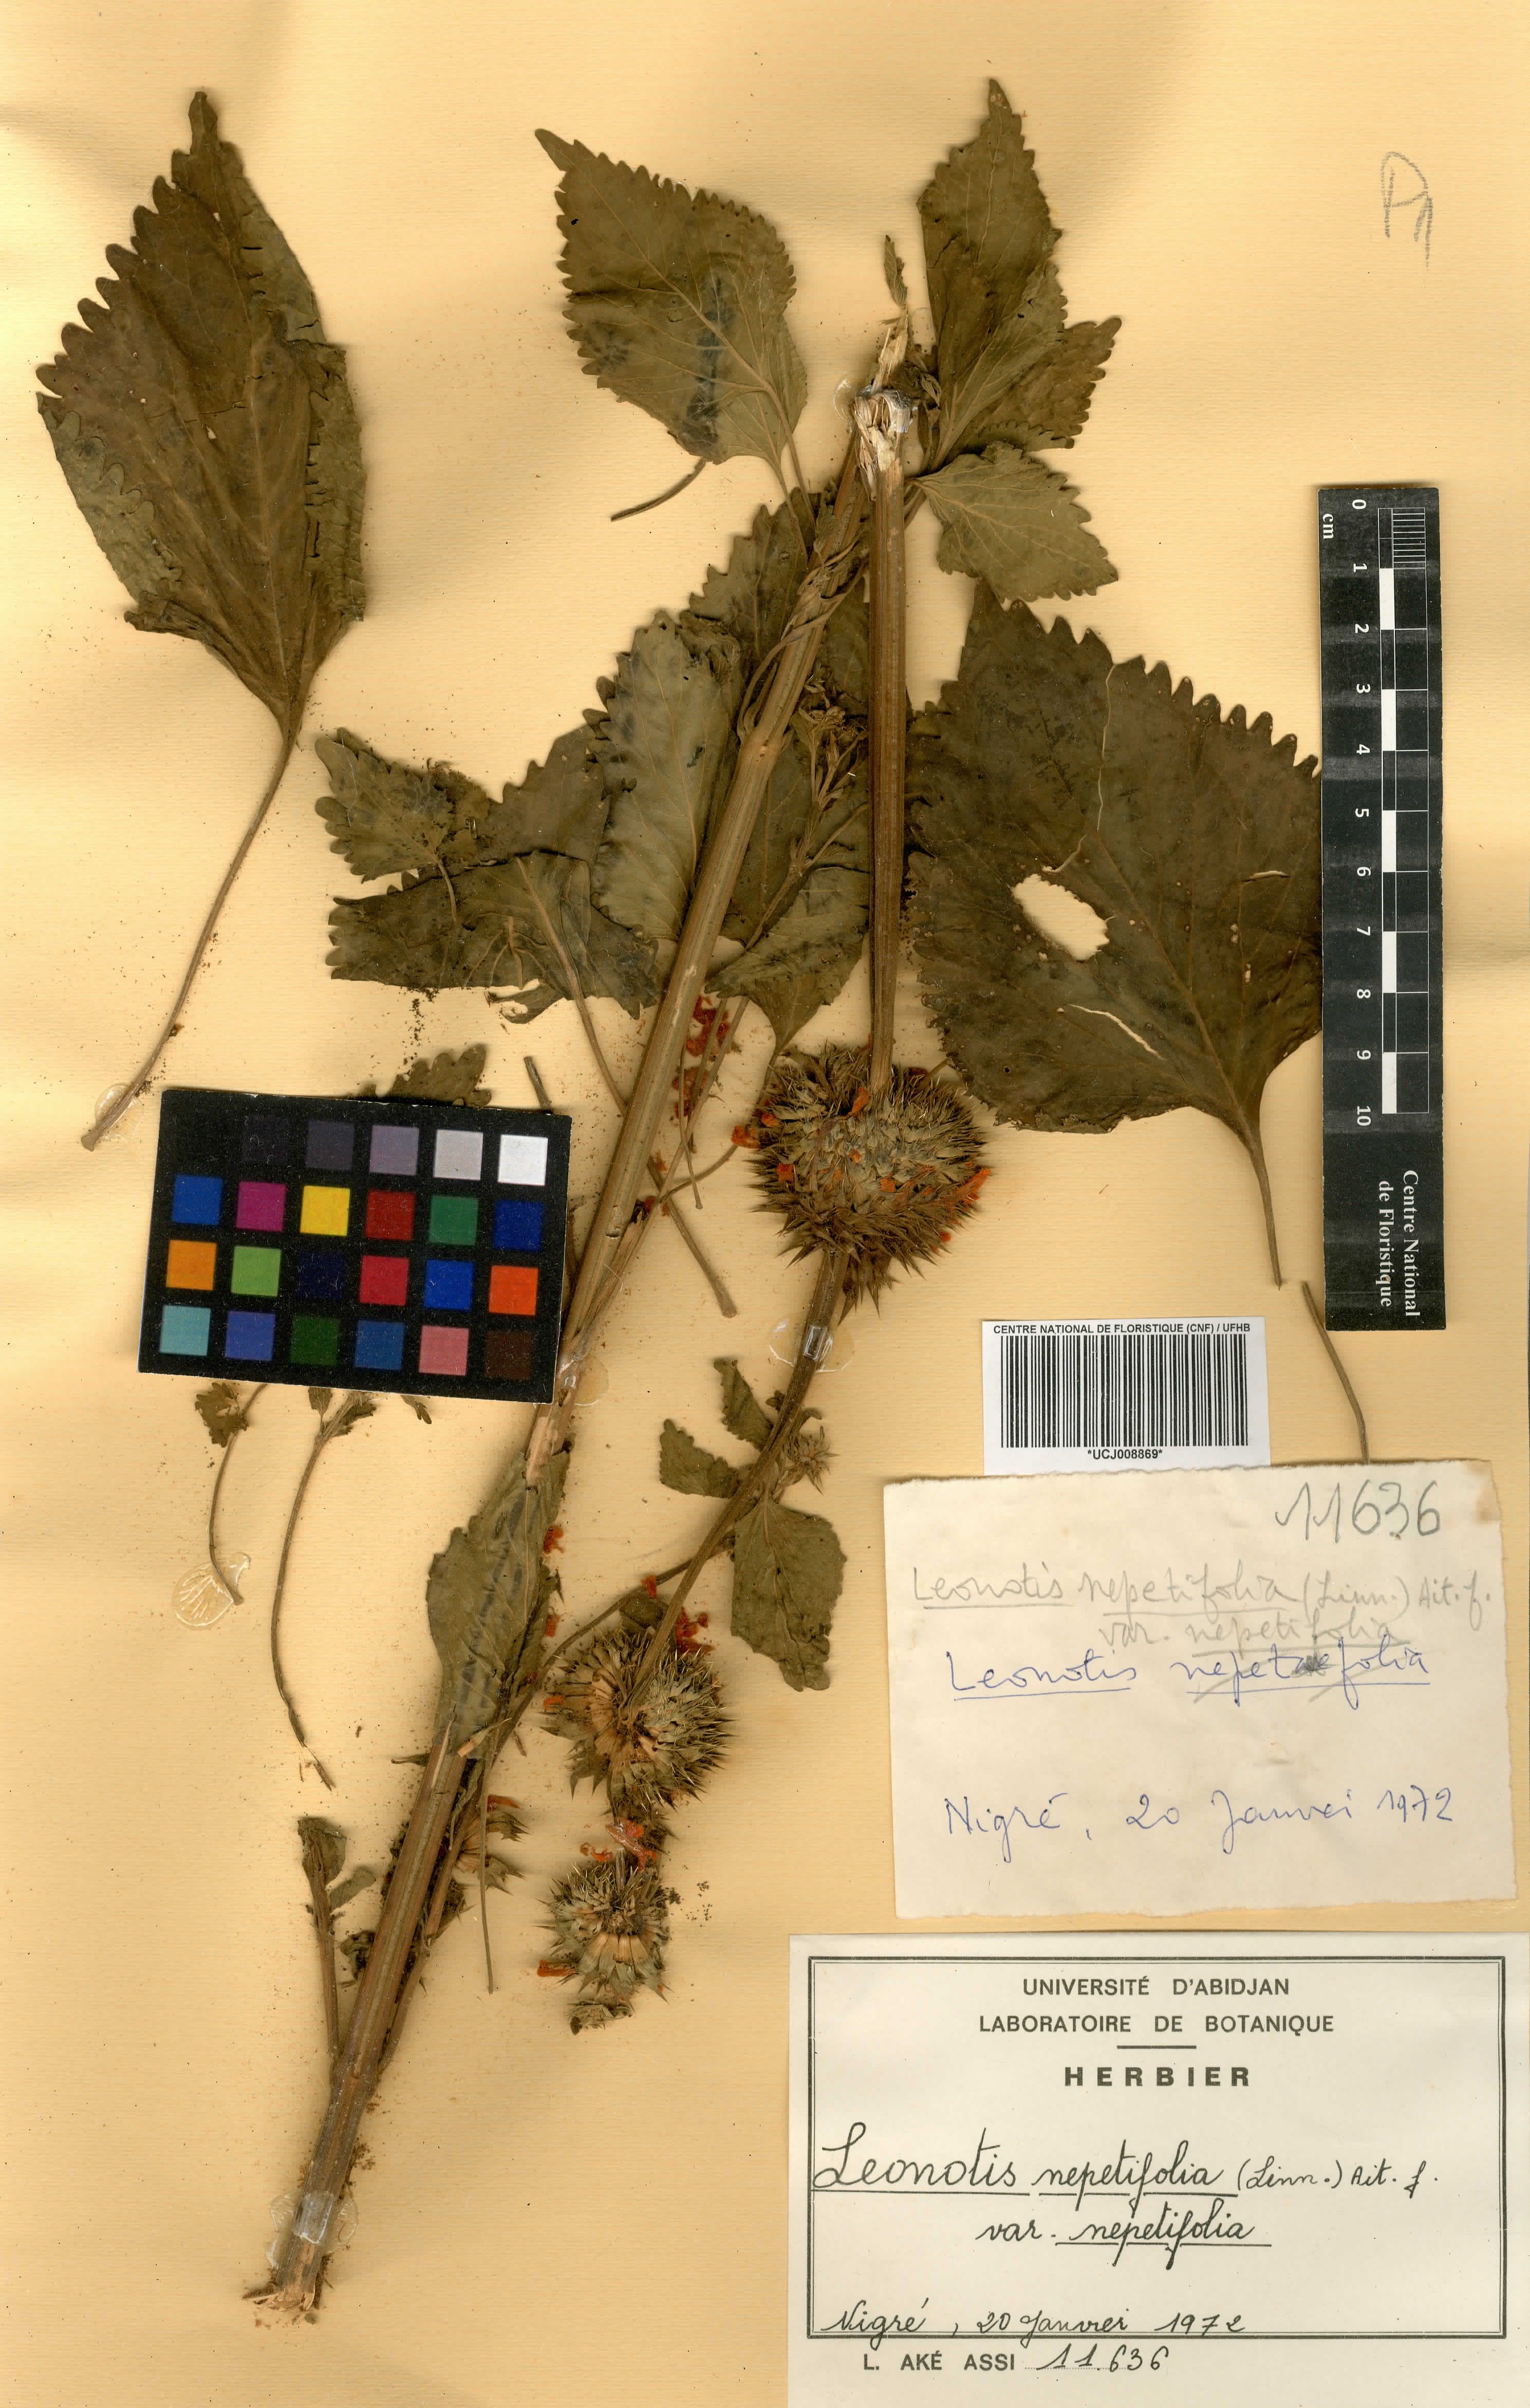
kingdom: Plantae
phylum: Tracheophyta
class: Magnoliopsida
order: Lamiales
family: Lamiaceae
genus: Leonotis
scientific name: Leonotis nepetifolia
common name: Christmas candlestick
